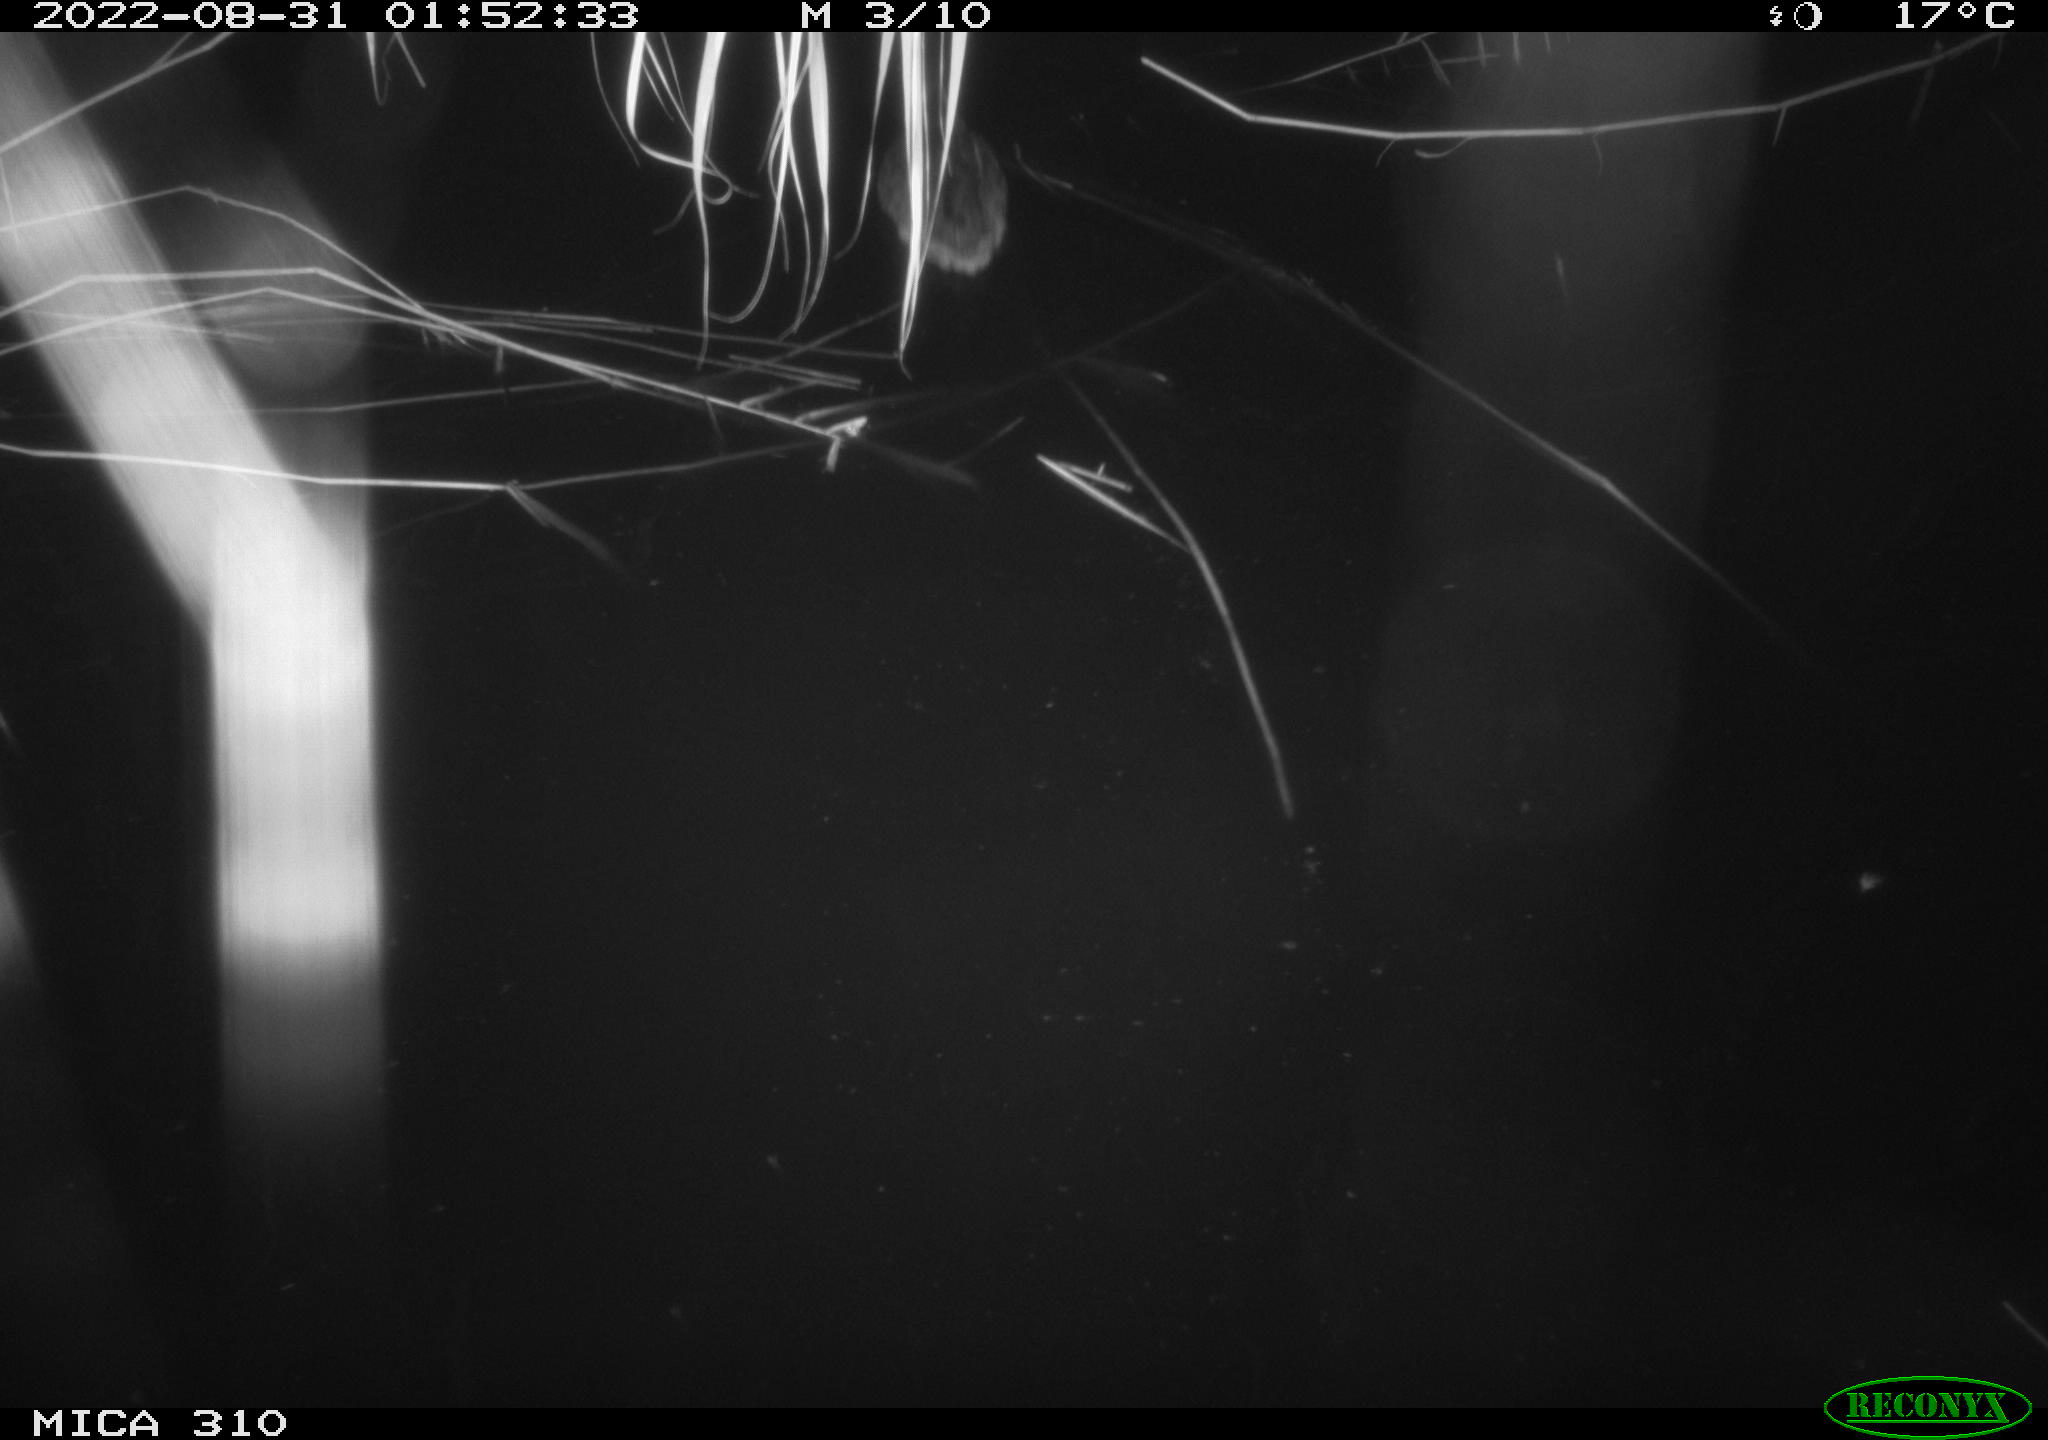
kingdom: Animalia
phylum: Chordata
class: Aves
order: Anseriformes
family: Anatidae
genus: Anas
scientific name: Anas platyrhynchos
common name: Mallard
